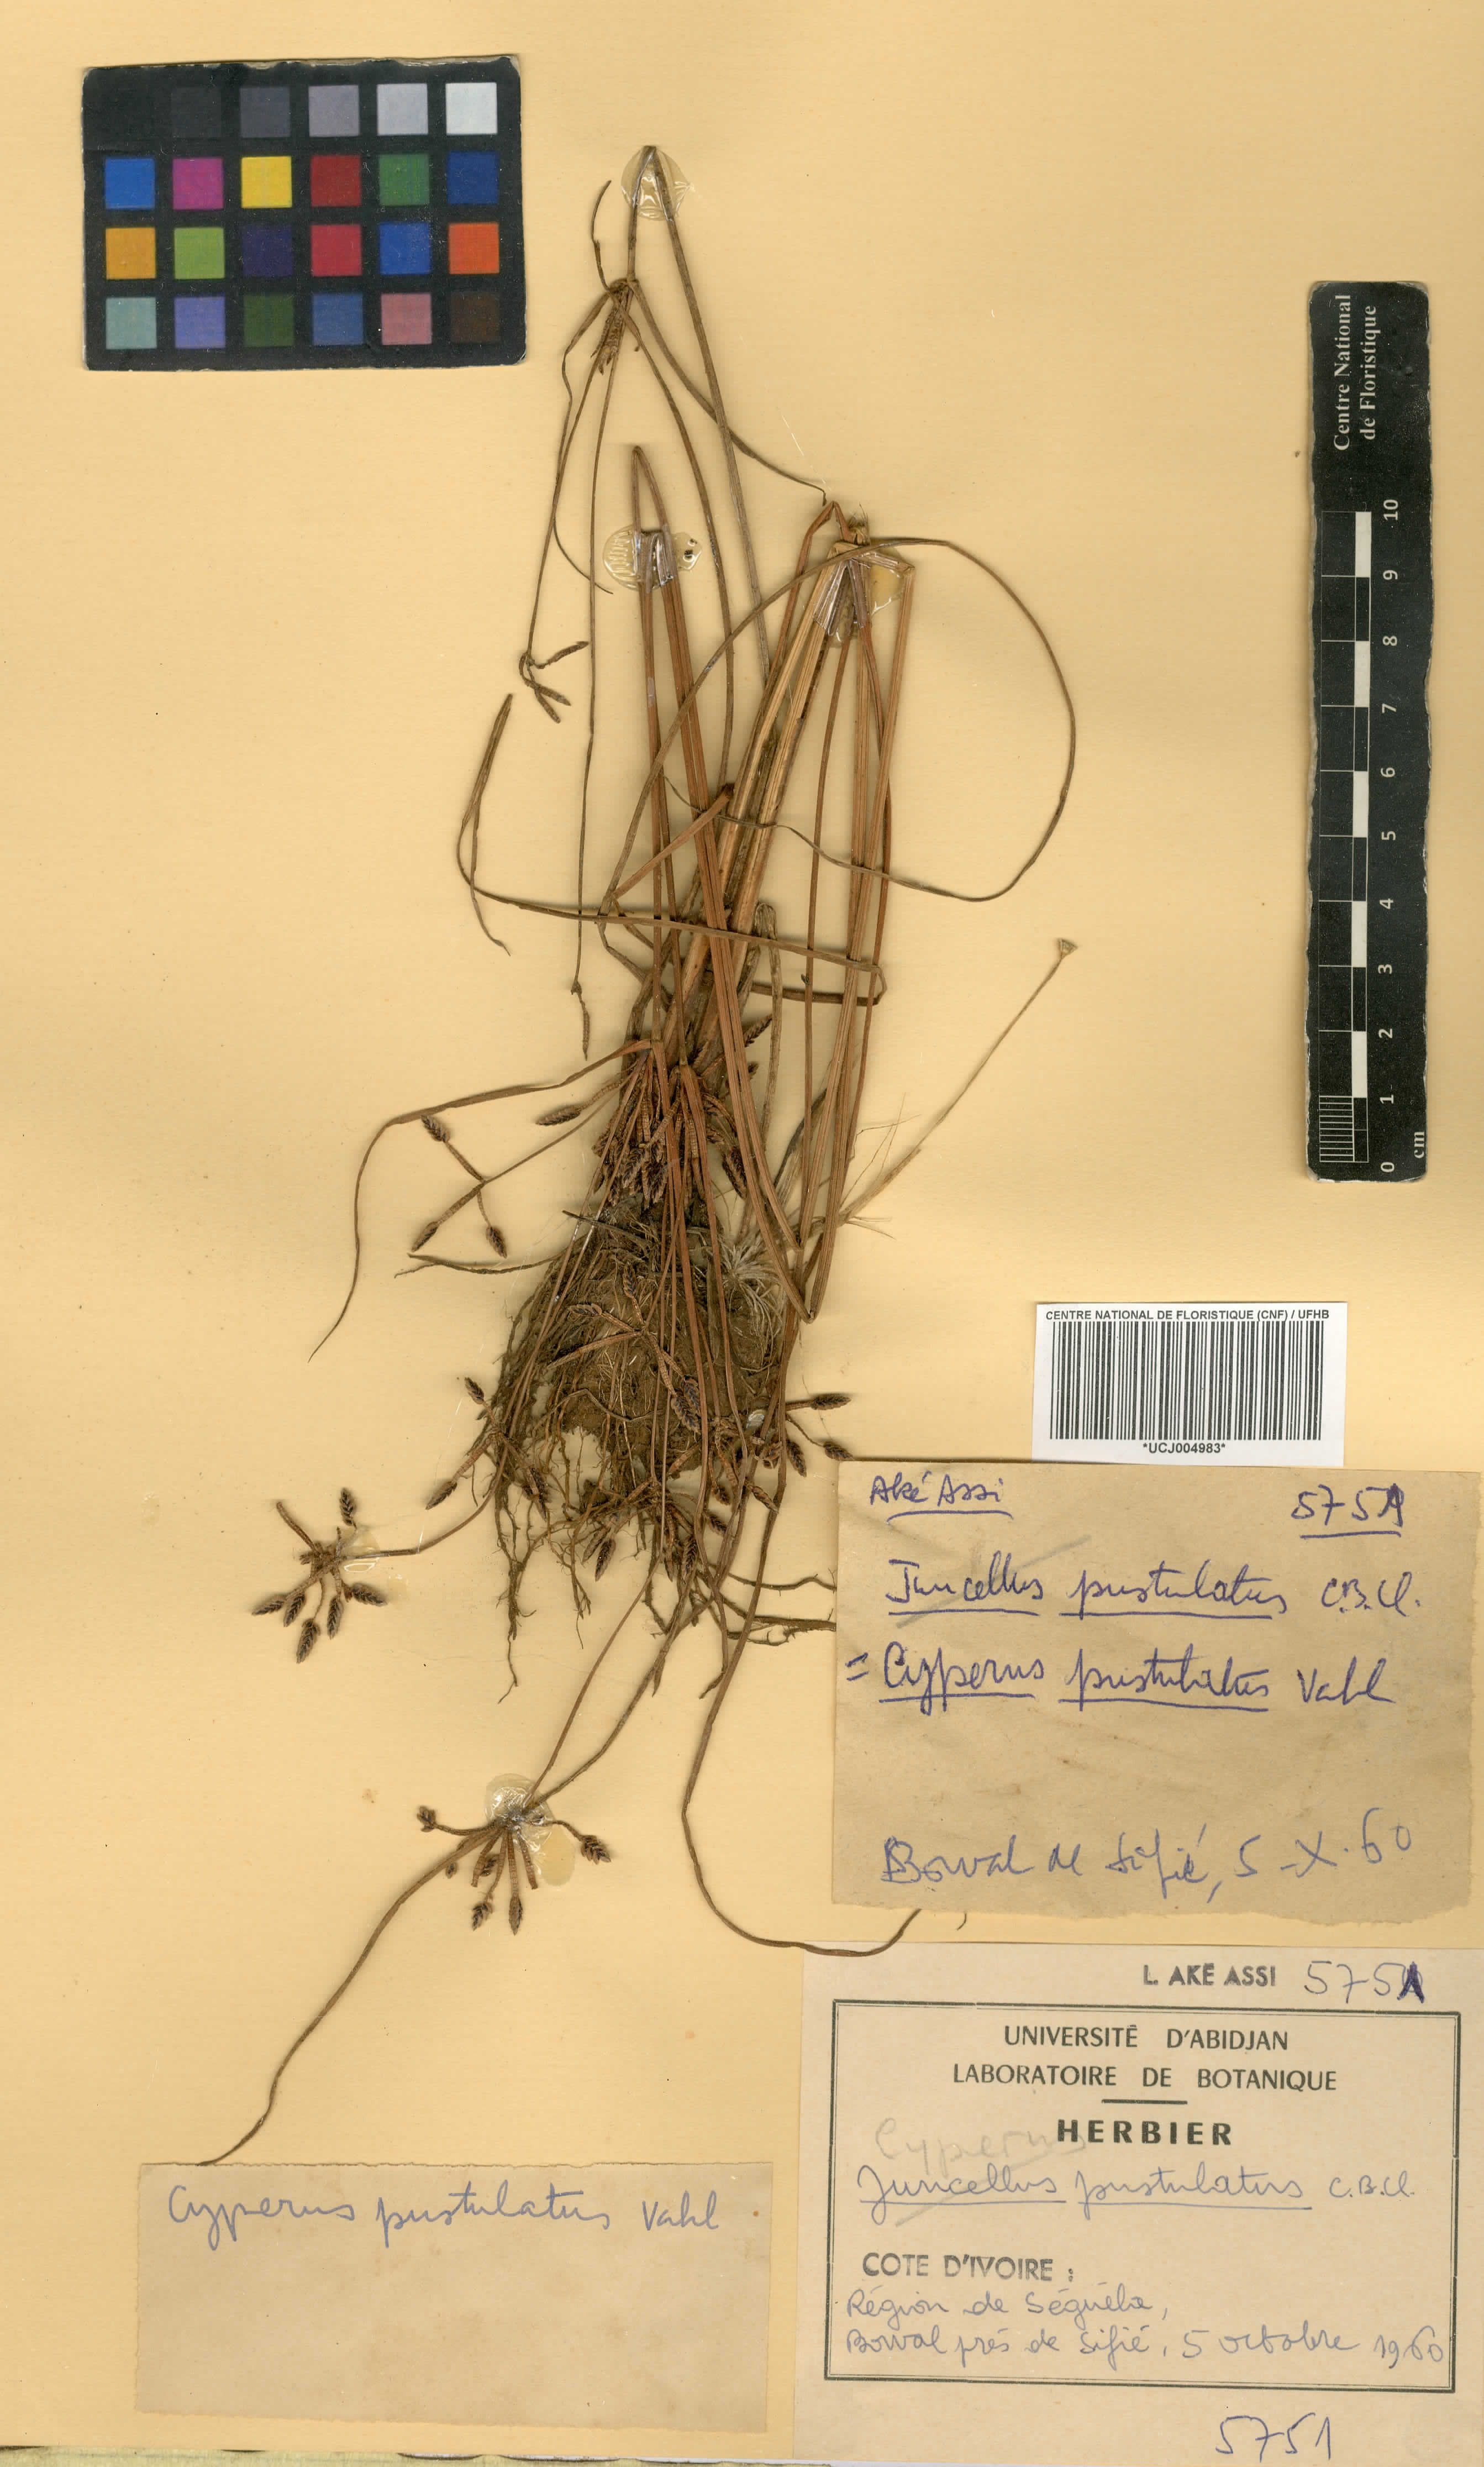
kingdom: Plantae
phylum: Tracheophyta
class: Liliopsida
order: Poales
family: Cyperaceae
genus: Cyperus
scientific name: Cyperus pustulatus
